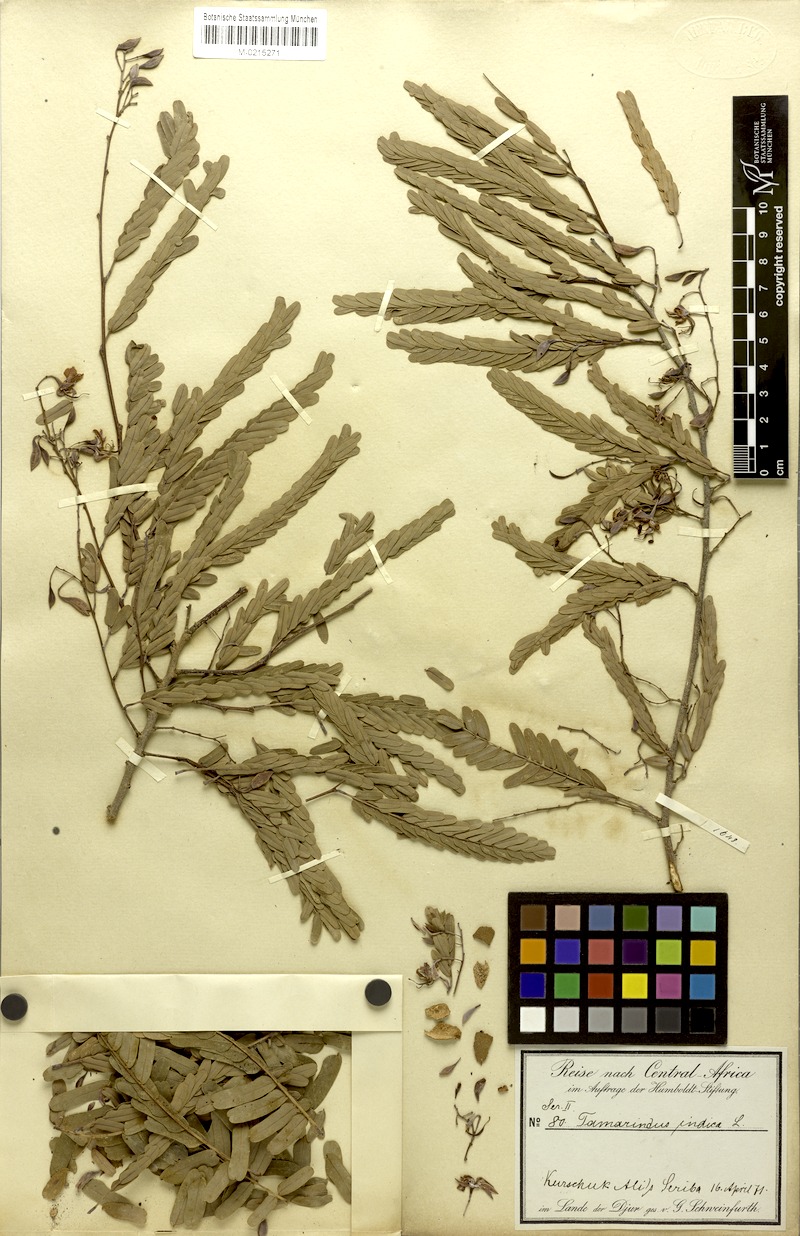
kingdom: Plantae
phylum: Tracheophyta
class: Magnoliopsida
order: Fabales
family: Fabaceae
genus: Tamarindus
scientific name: Tamarindus indica
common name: Tamarind
